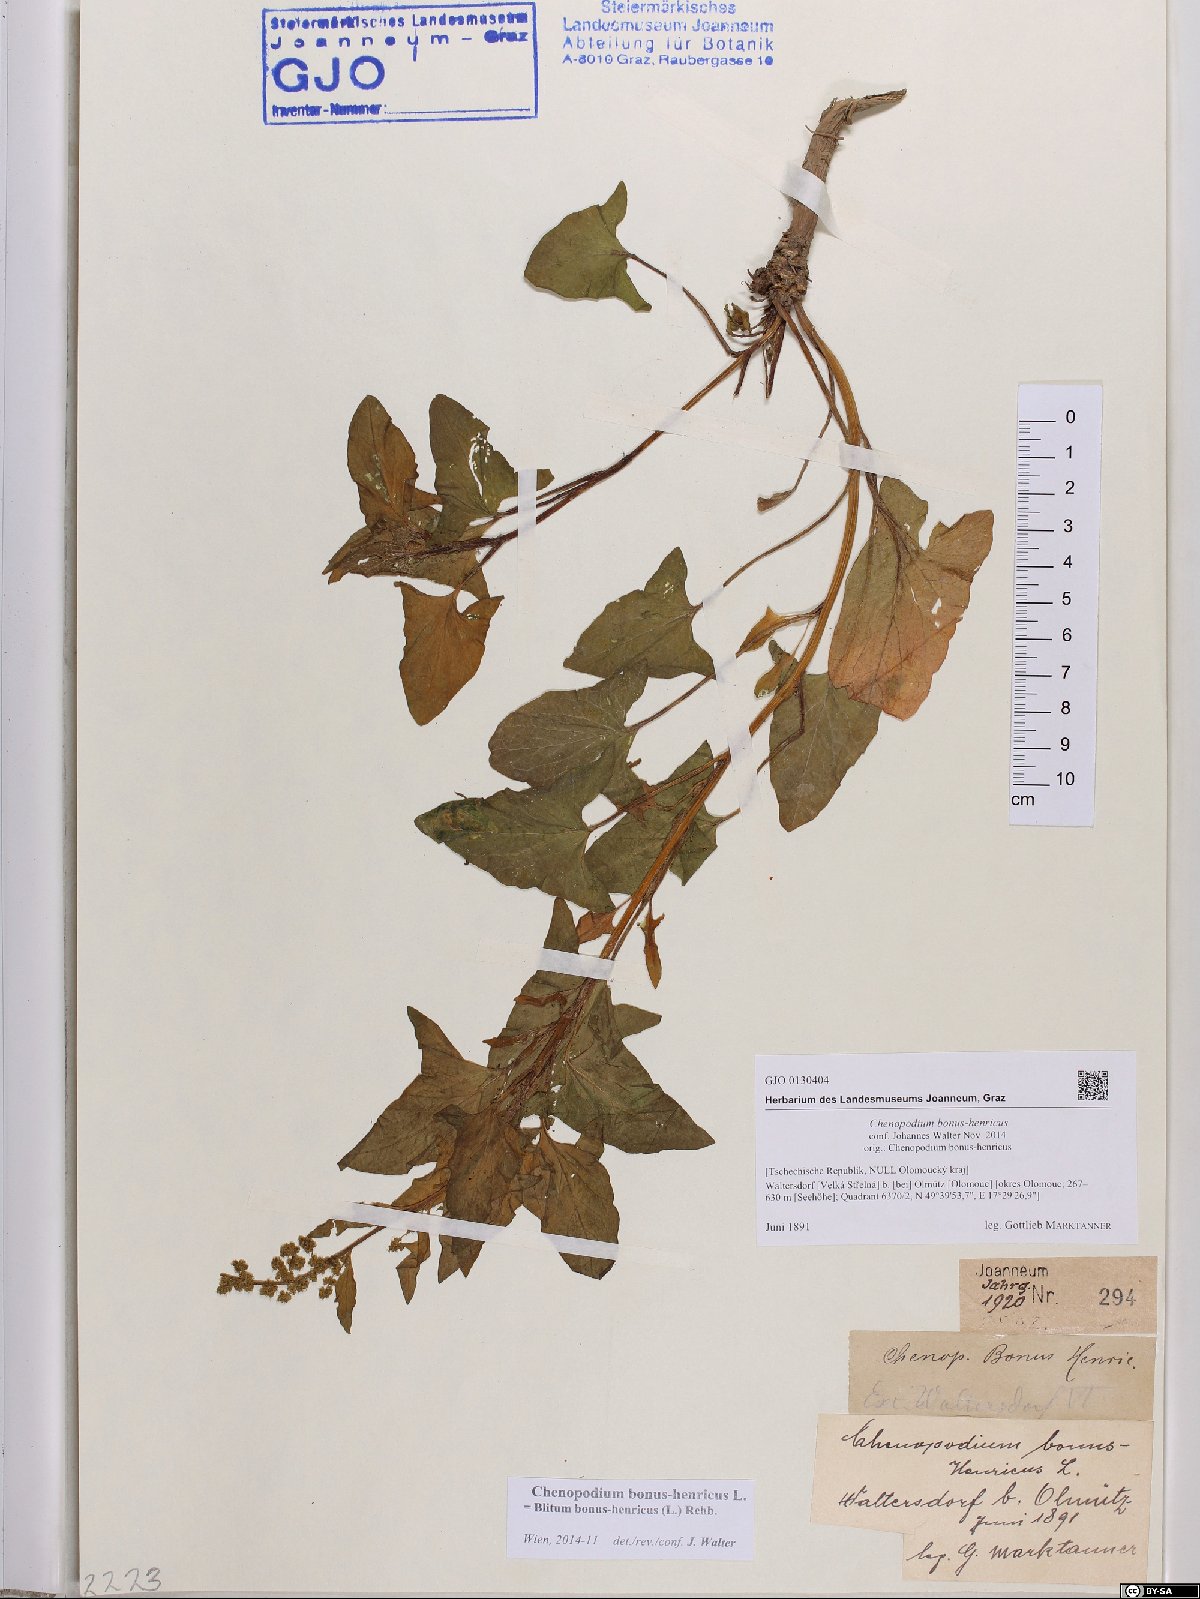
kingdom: Plantae
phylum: Tracheophyta
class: Magnoliopsida
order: Caryophyllales
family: Amaranthaceae
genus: Blitum
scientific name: Blitum bonus-henricus
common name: Good king henry
